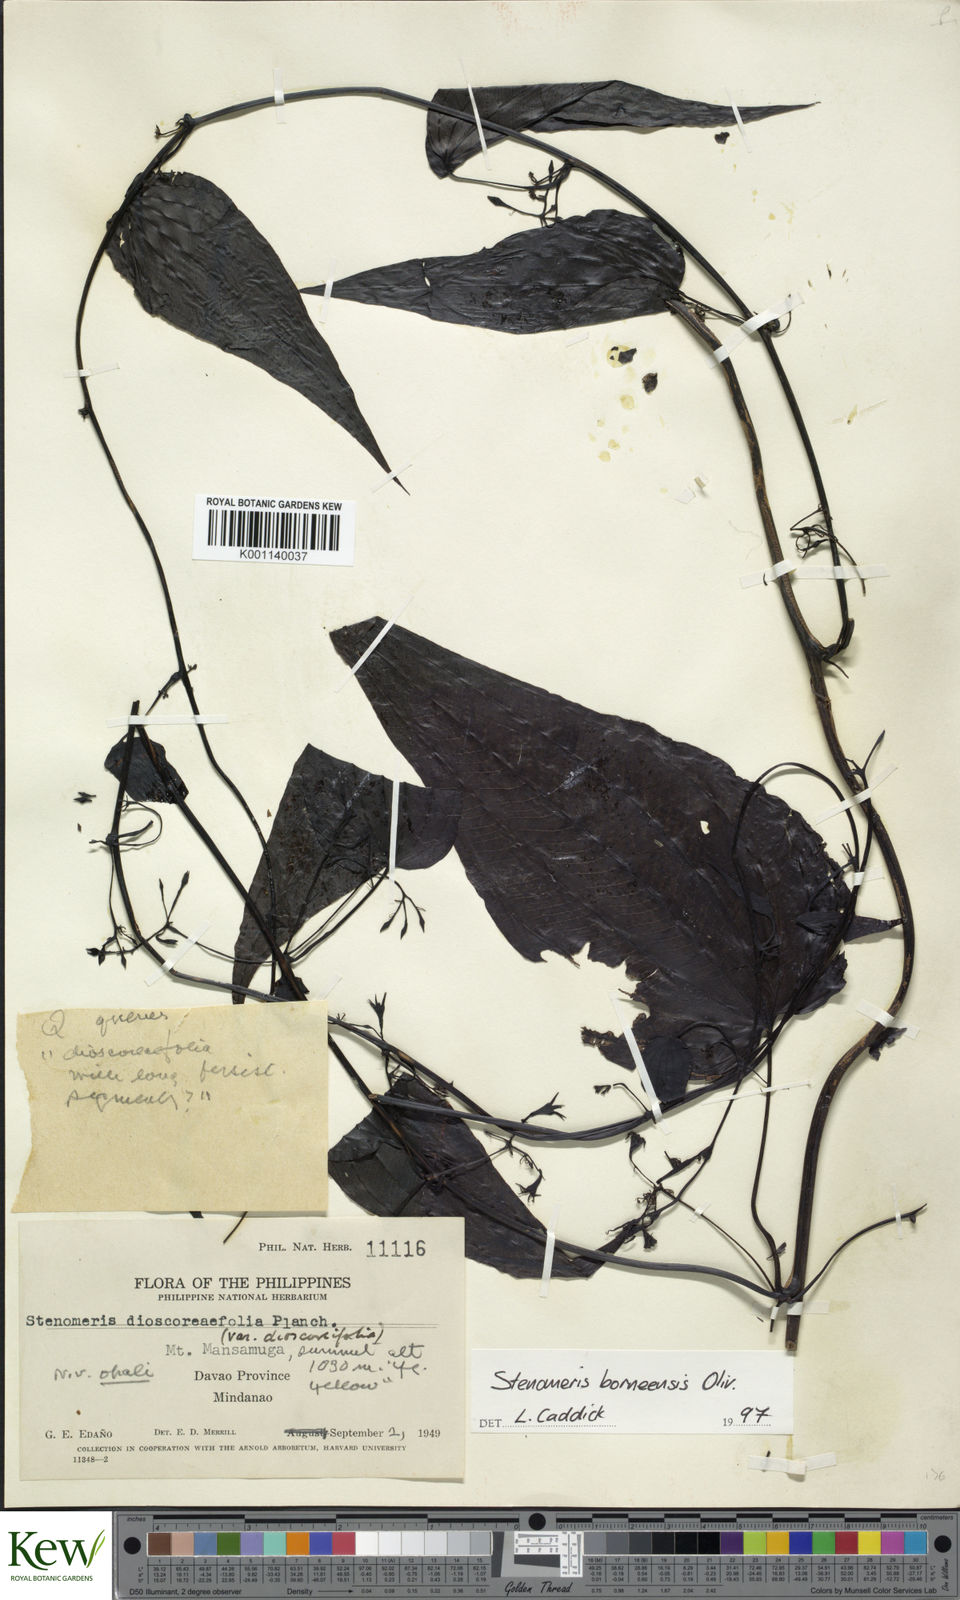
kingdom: Plantae
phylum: Tracheophyta
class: Liliopsida
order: Dioscoreales
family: Dioscoreaceae
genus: Stenomeris
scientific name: Stenomeris borneensis
